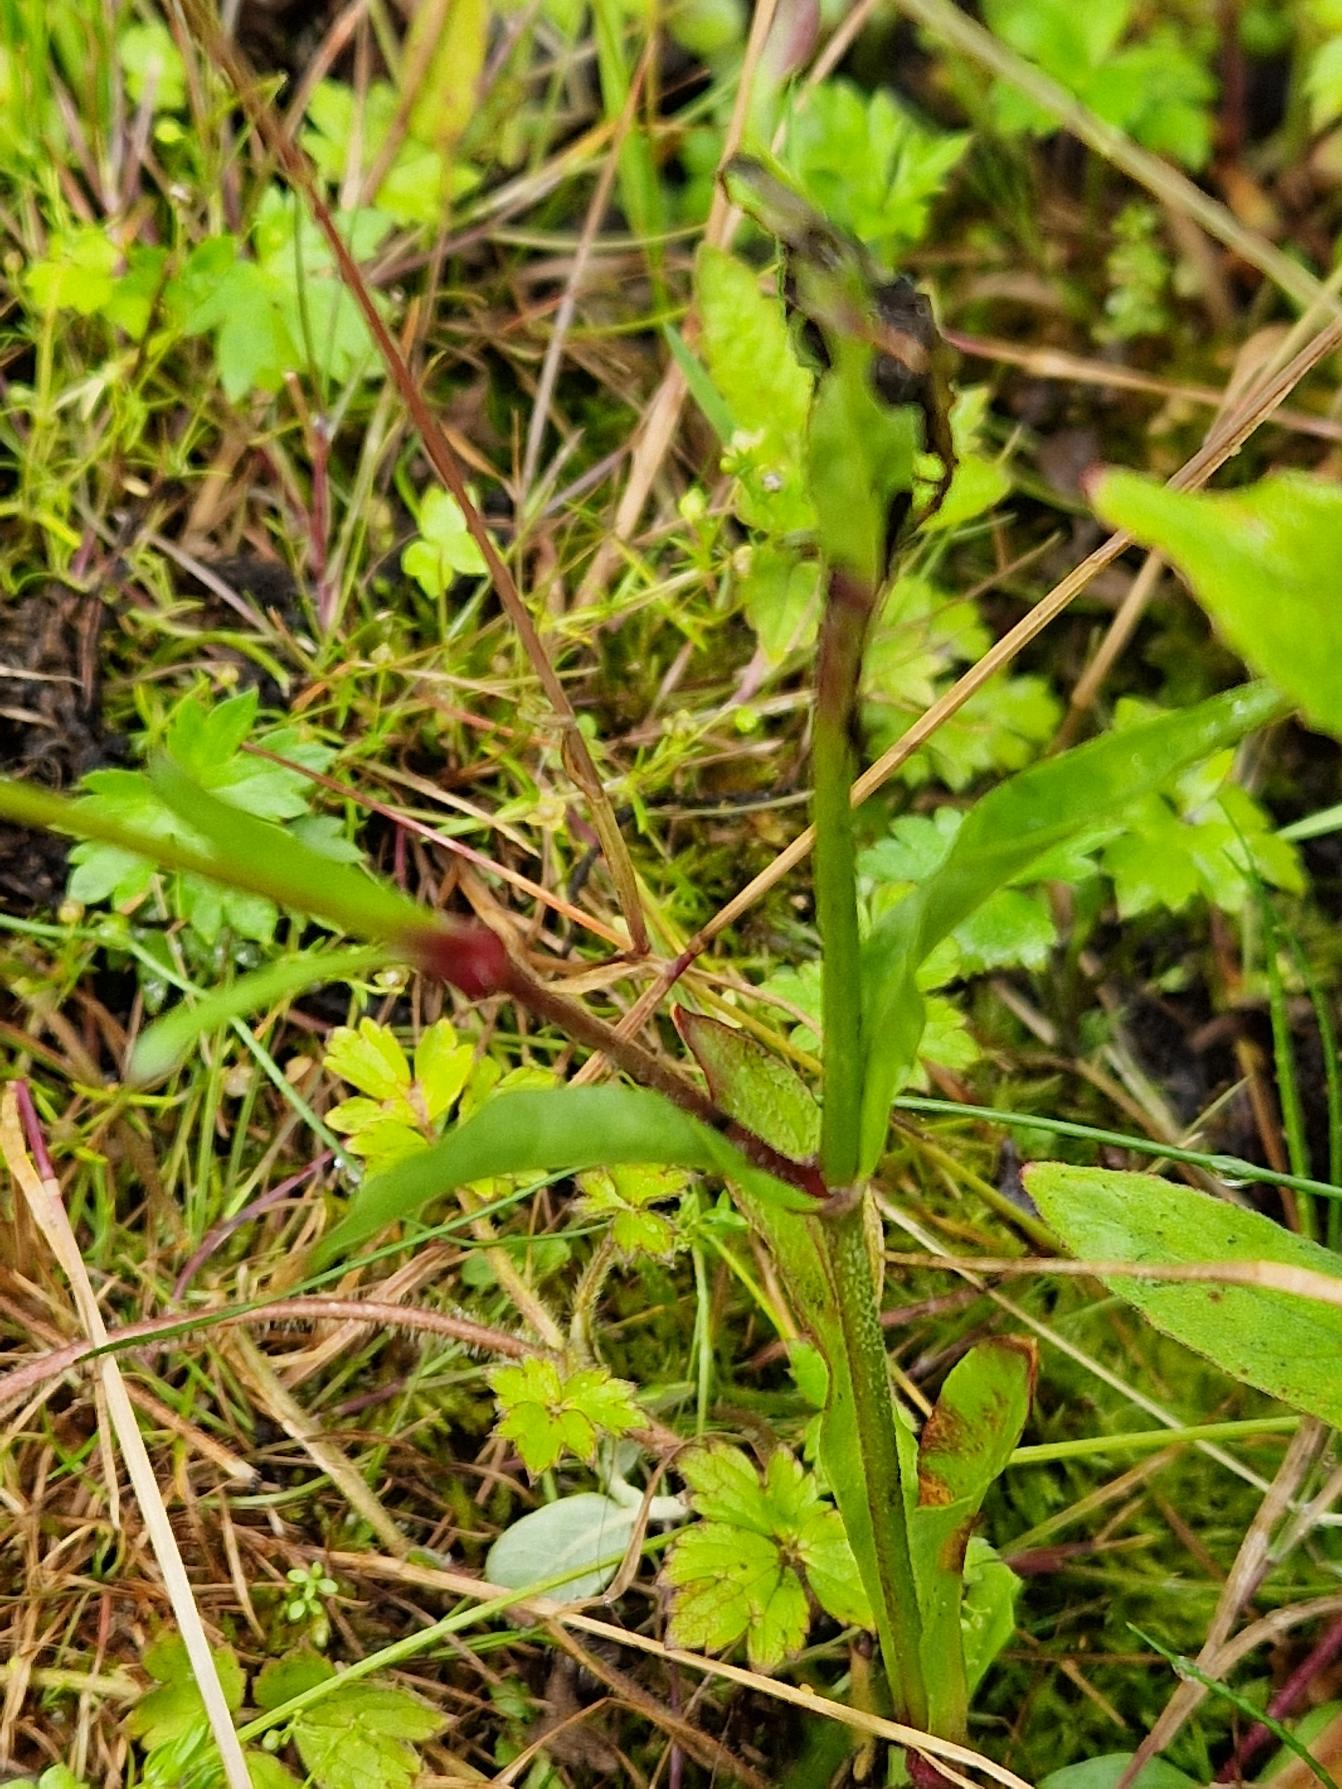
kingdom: Plantae
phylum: Tracheophyta
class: Magnoliopsida
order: Caryophyllales
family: Caryophyllaceae
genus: Silene
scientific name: Silene flos-cuculi
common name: Trævlekrone
